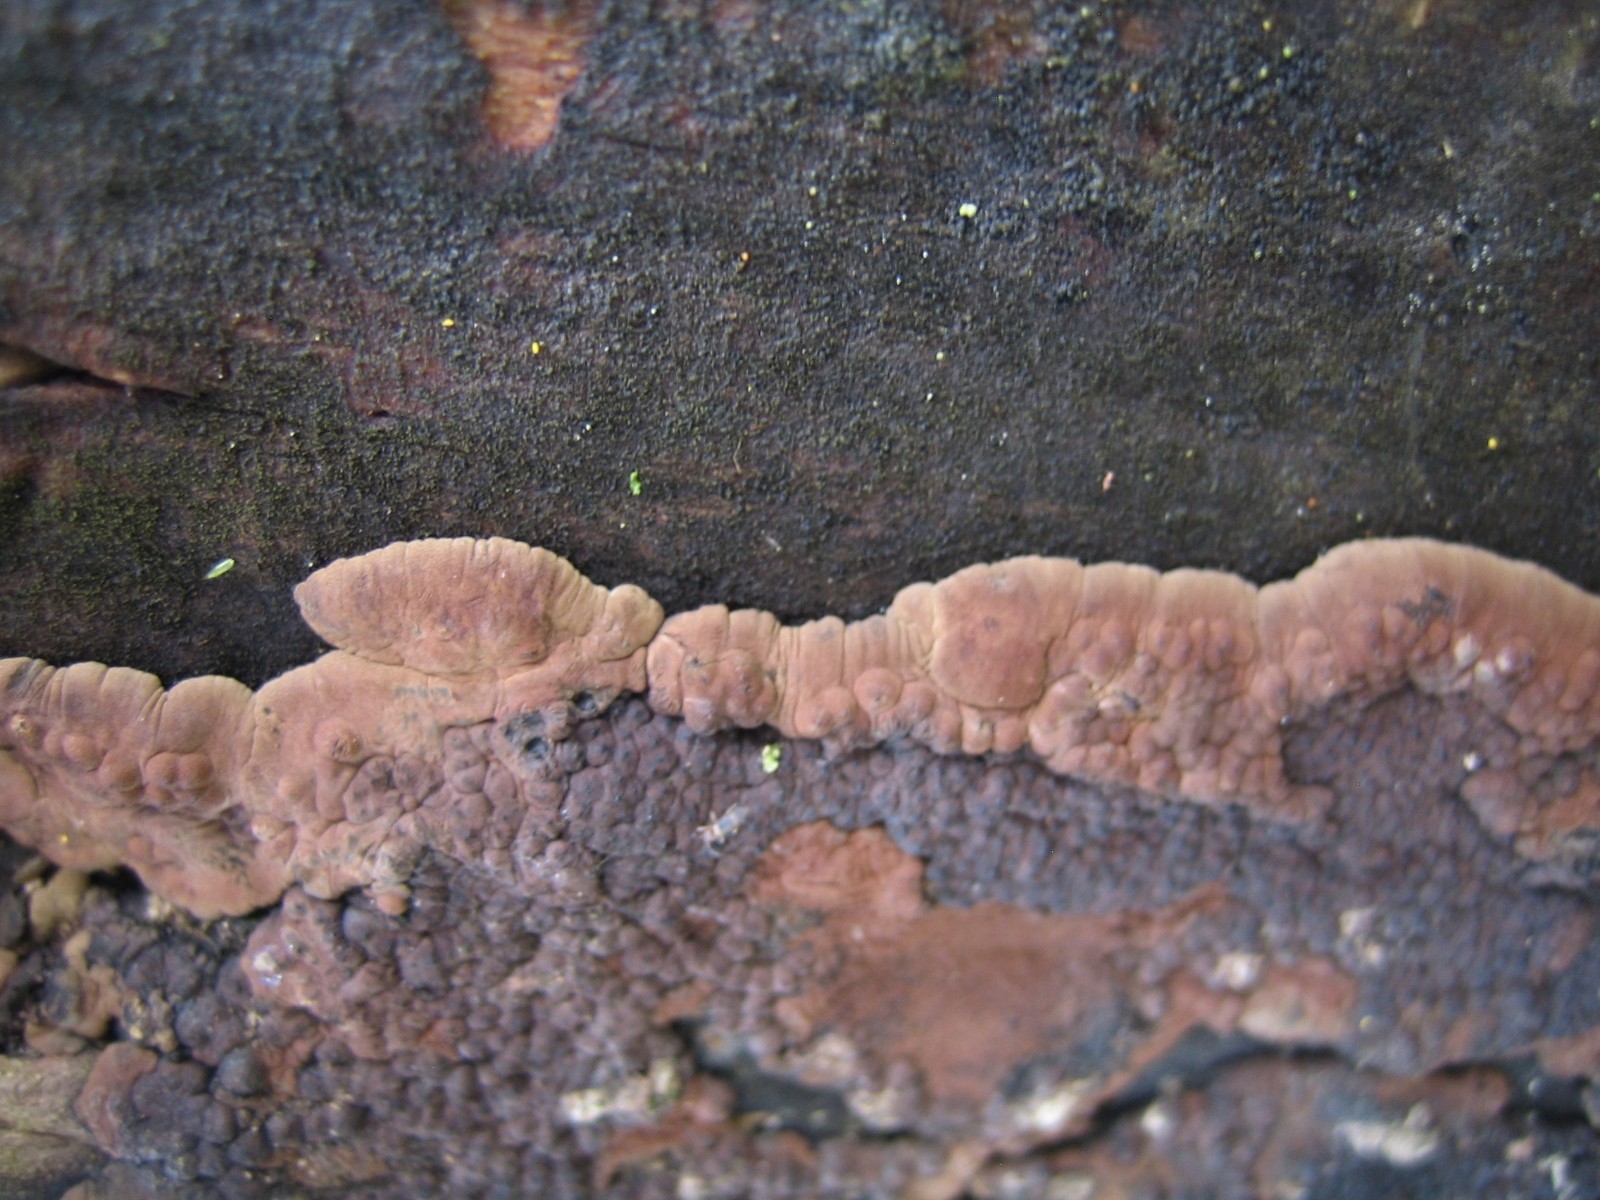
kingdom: Fungi
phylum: Ascomycota
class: Sordariomycetes
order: Xylariales
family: Hypoxylaceae
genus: Jackrogersella
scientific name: Jackrogersella
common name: kulbær
